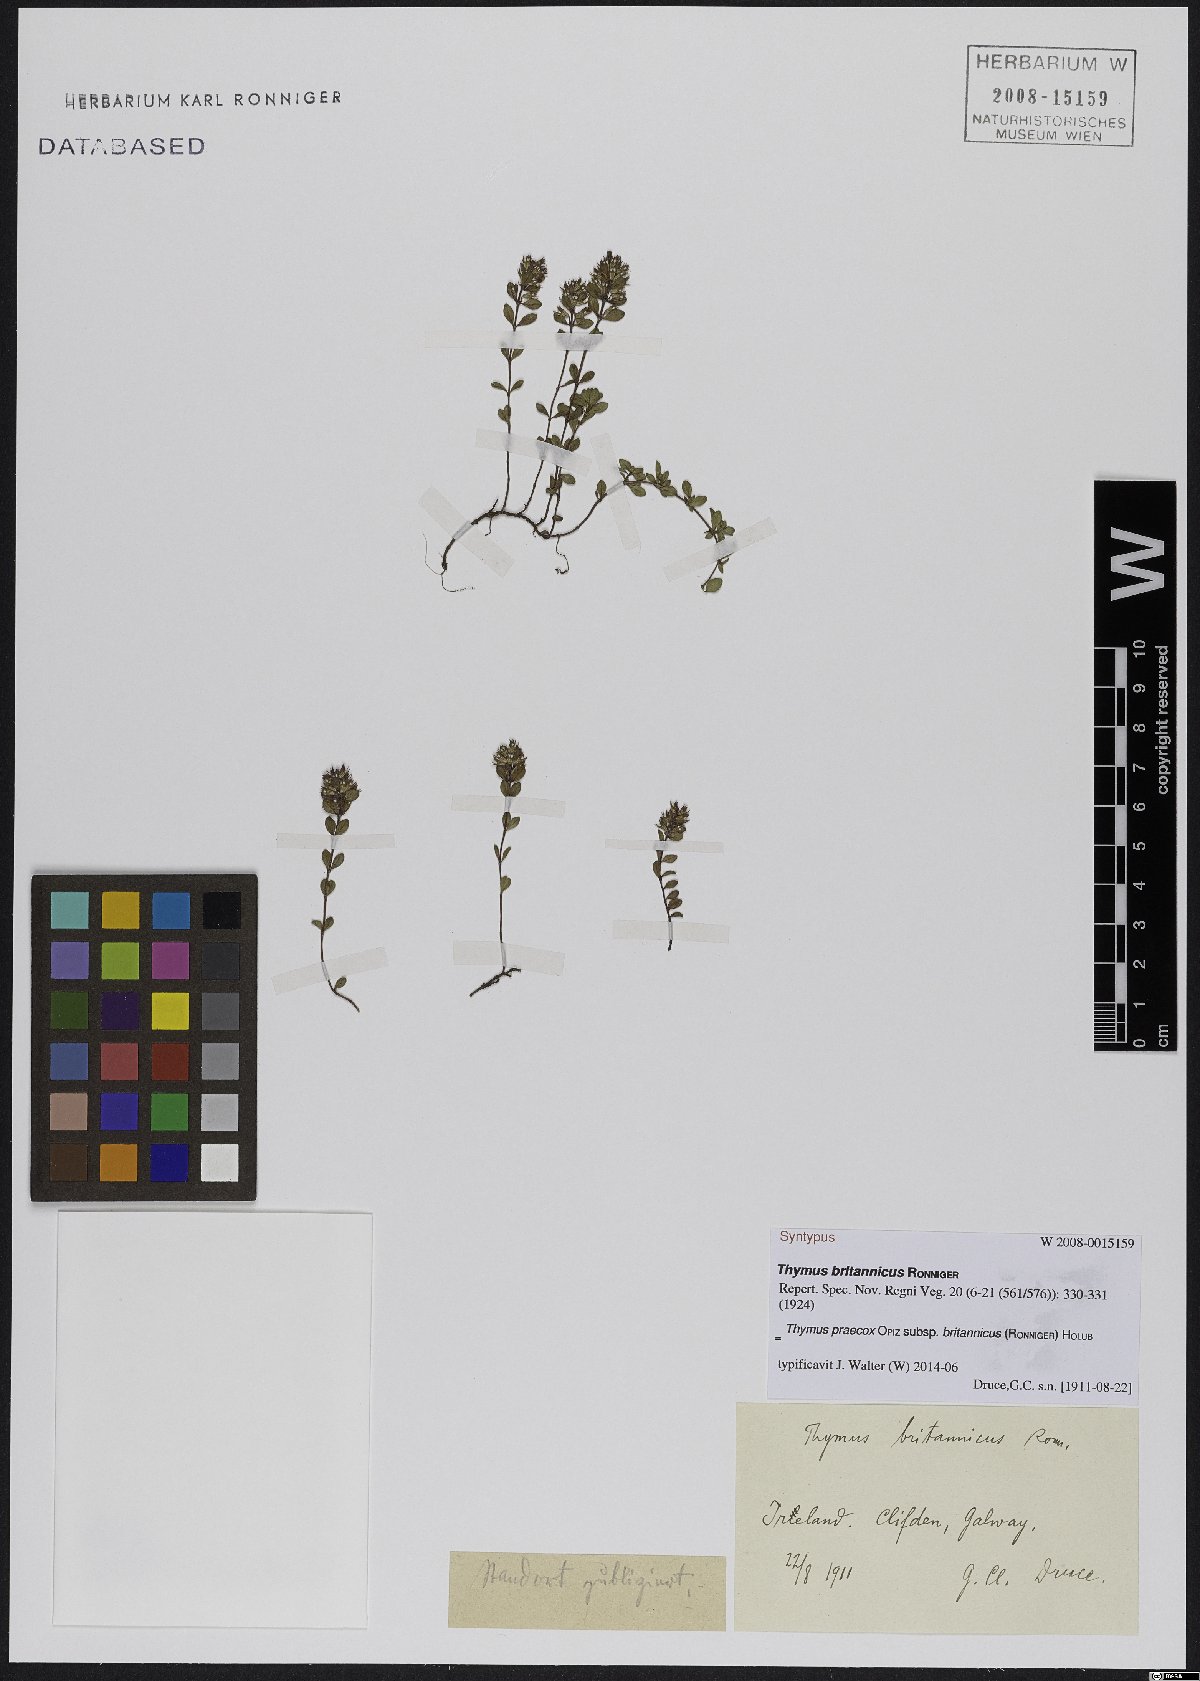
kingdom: Plantae
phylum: Tracheophyta
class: Magnoliopsida
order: Lamiales
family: Lamiaceae
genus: Thymus
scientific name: Thymus praecox
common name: Wild thyme
